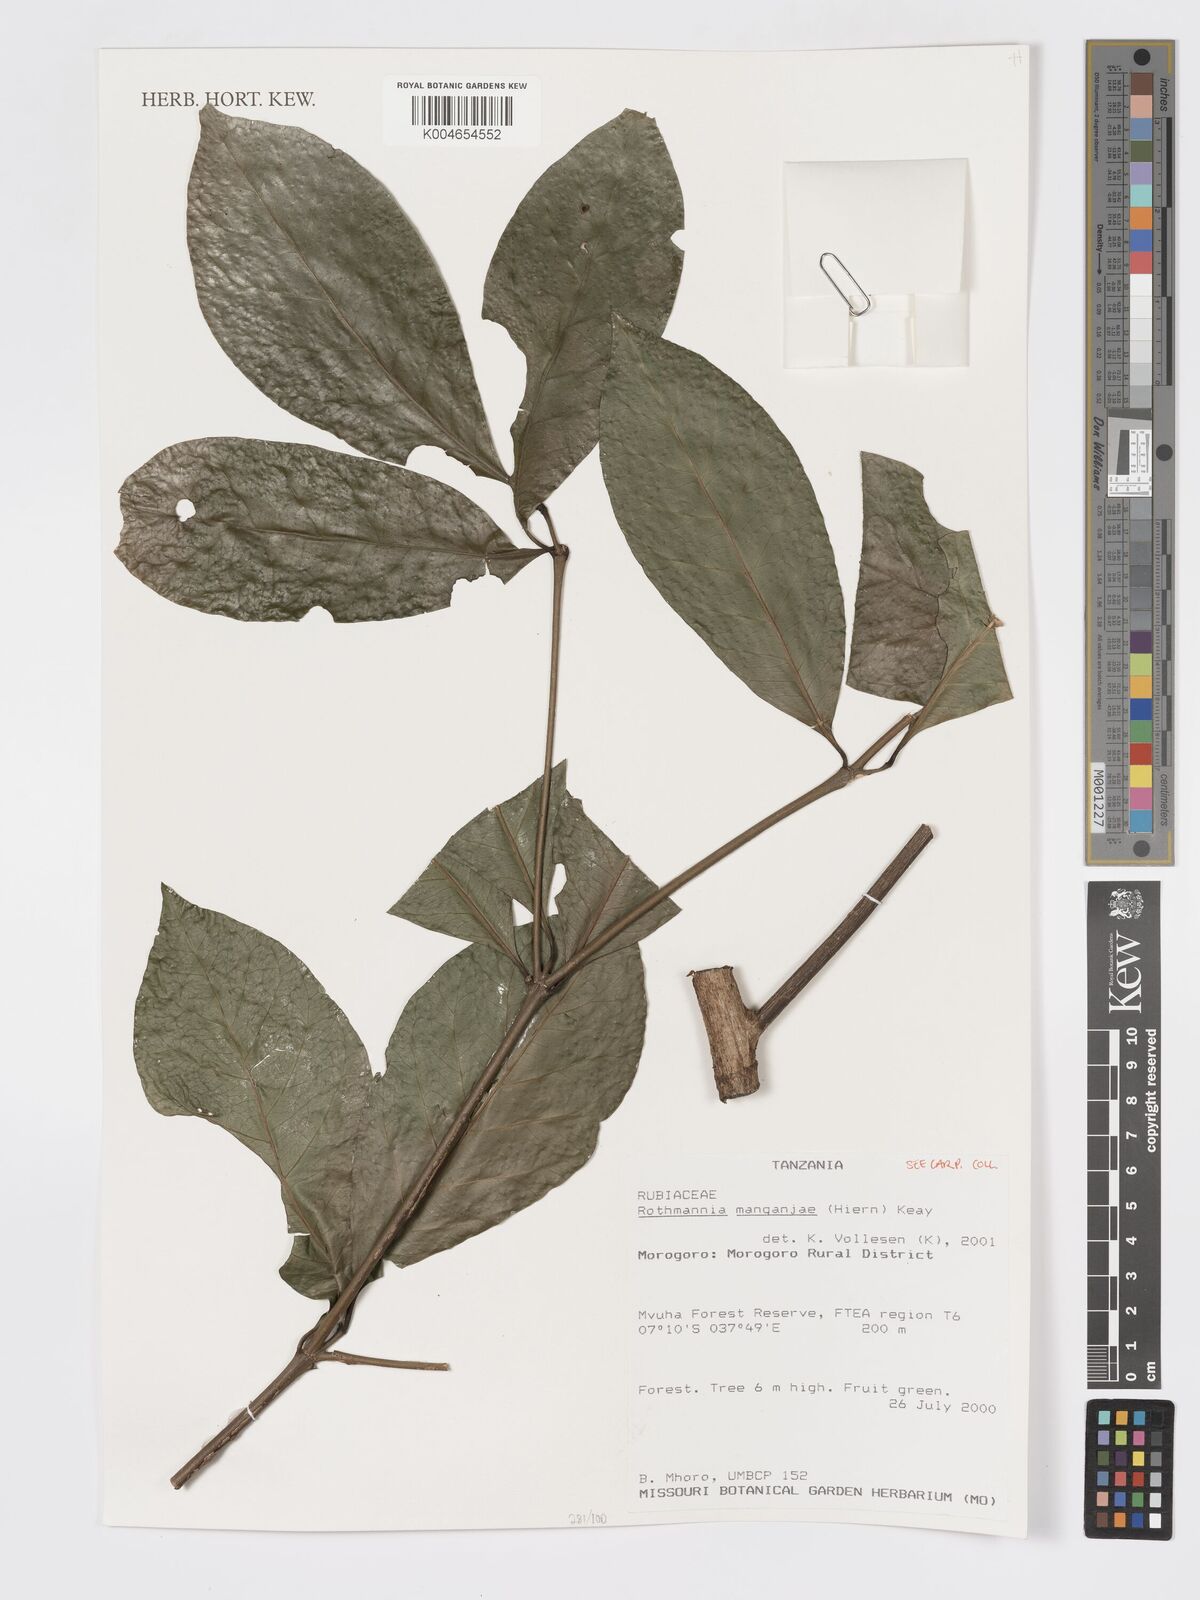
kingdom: Plantae
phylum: Tracheophyta
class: Magnoliopsida
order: Gentianales
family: Rubiaceae
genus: Rothmannia
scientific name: Rothmannia manganjae
